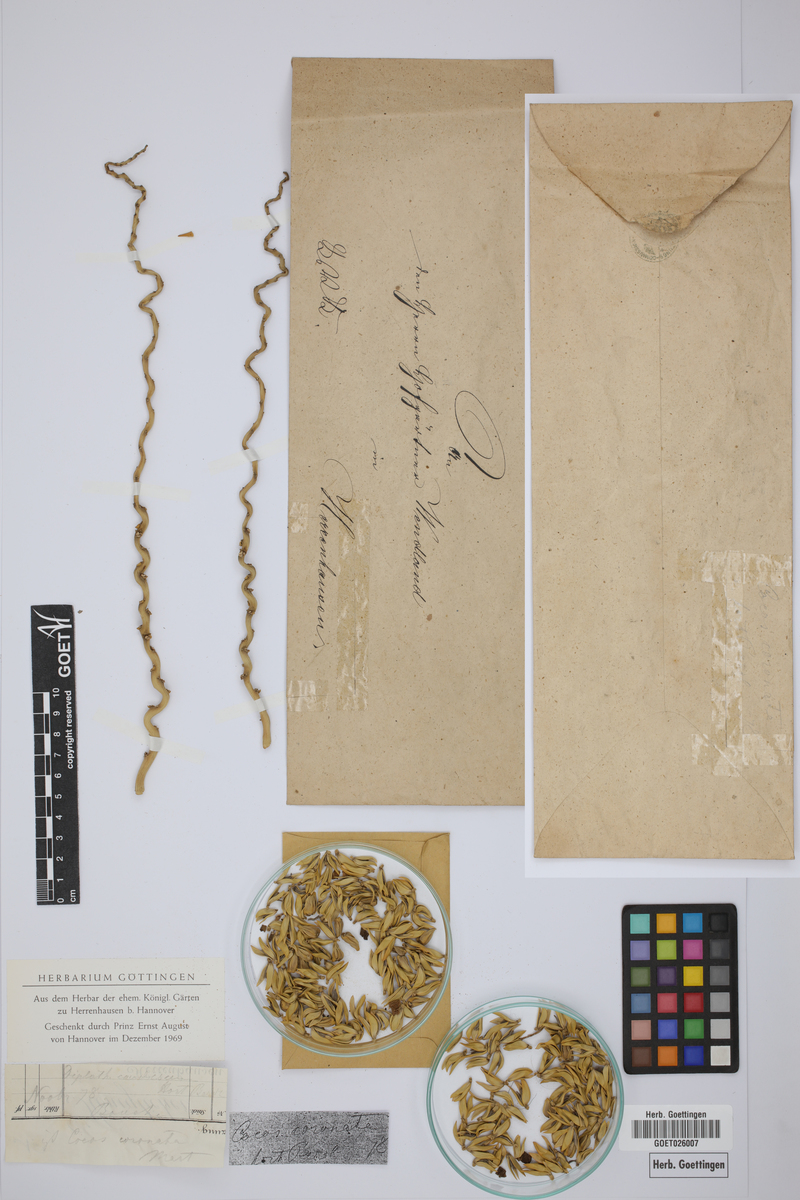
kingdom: Plantae
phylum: Tracheophyta
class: Liliopsida
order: Arecales
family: Arecaceae
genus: Syagrus
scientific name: Syagrus coronata
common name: Licuri palm
